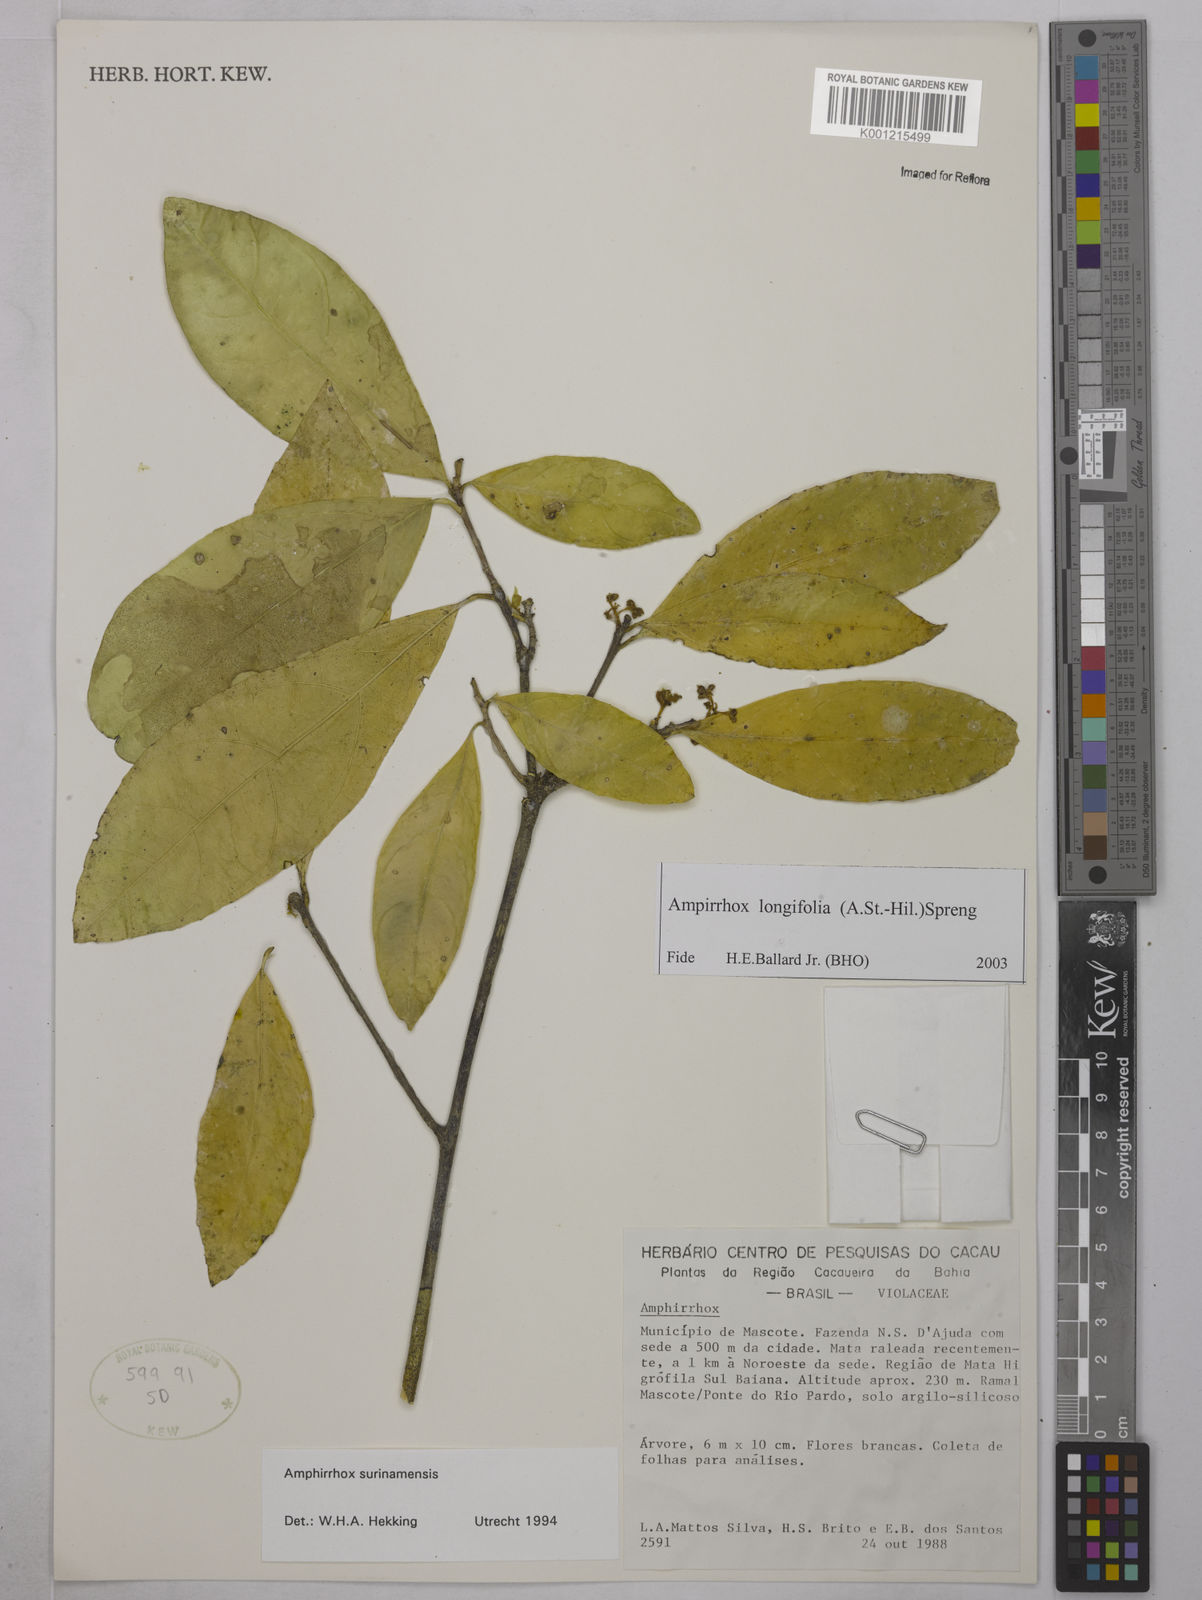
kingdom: Plantae
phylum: Tracheophyta
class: Magnoliopsida
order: Malpighiales
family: Violaceae
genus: Amphirrhox
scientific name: Amphirrhox longifolia
